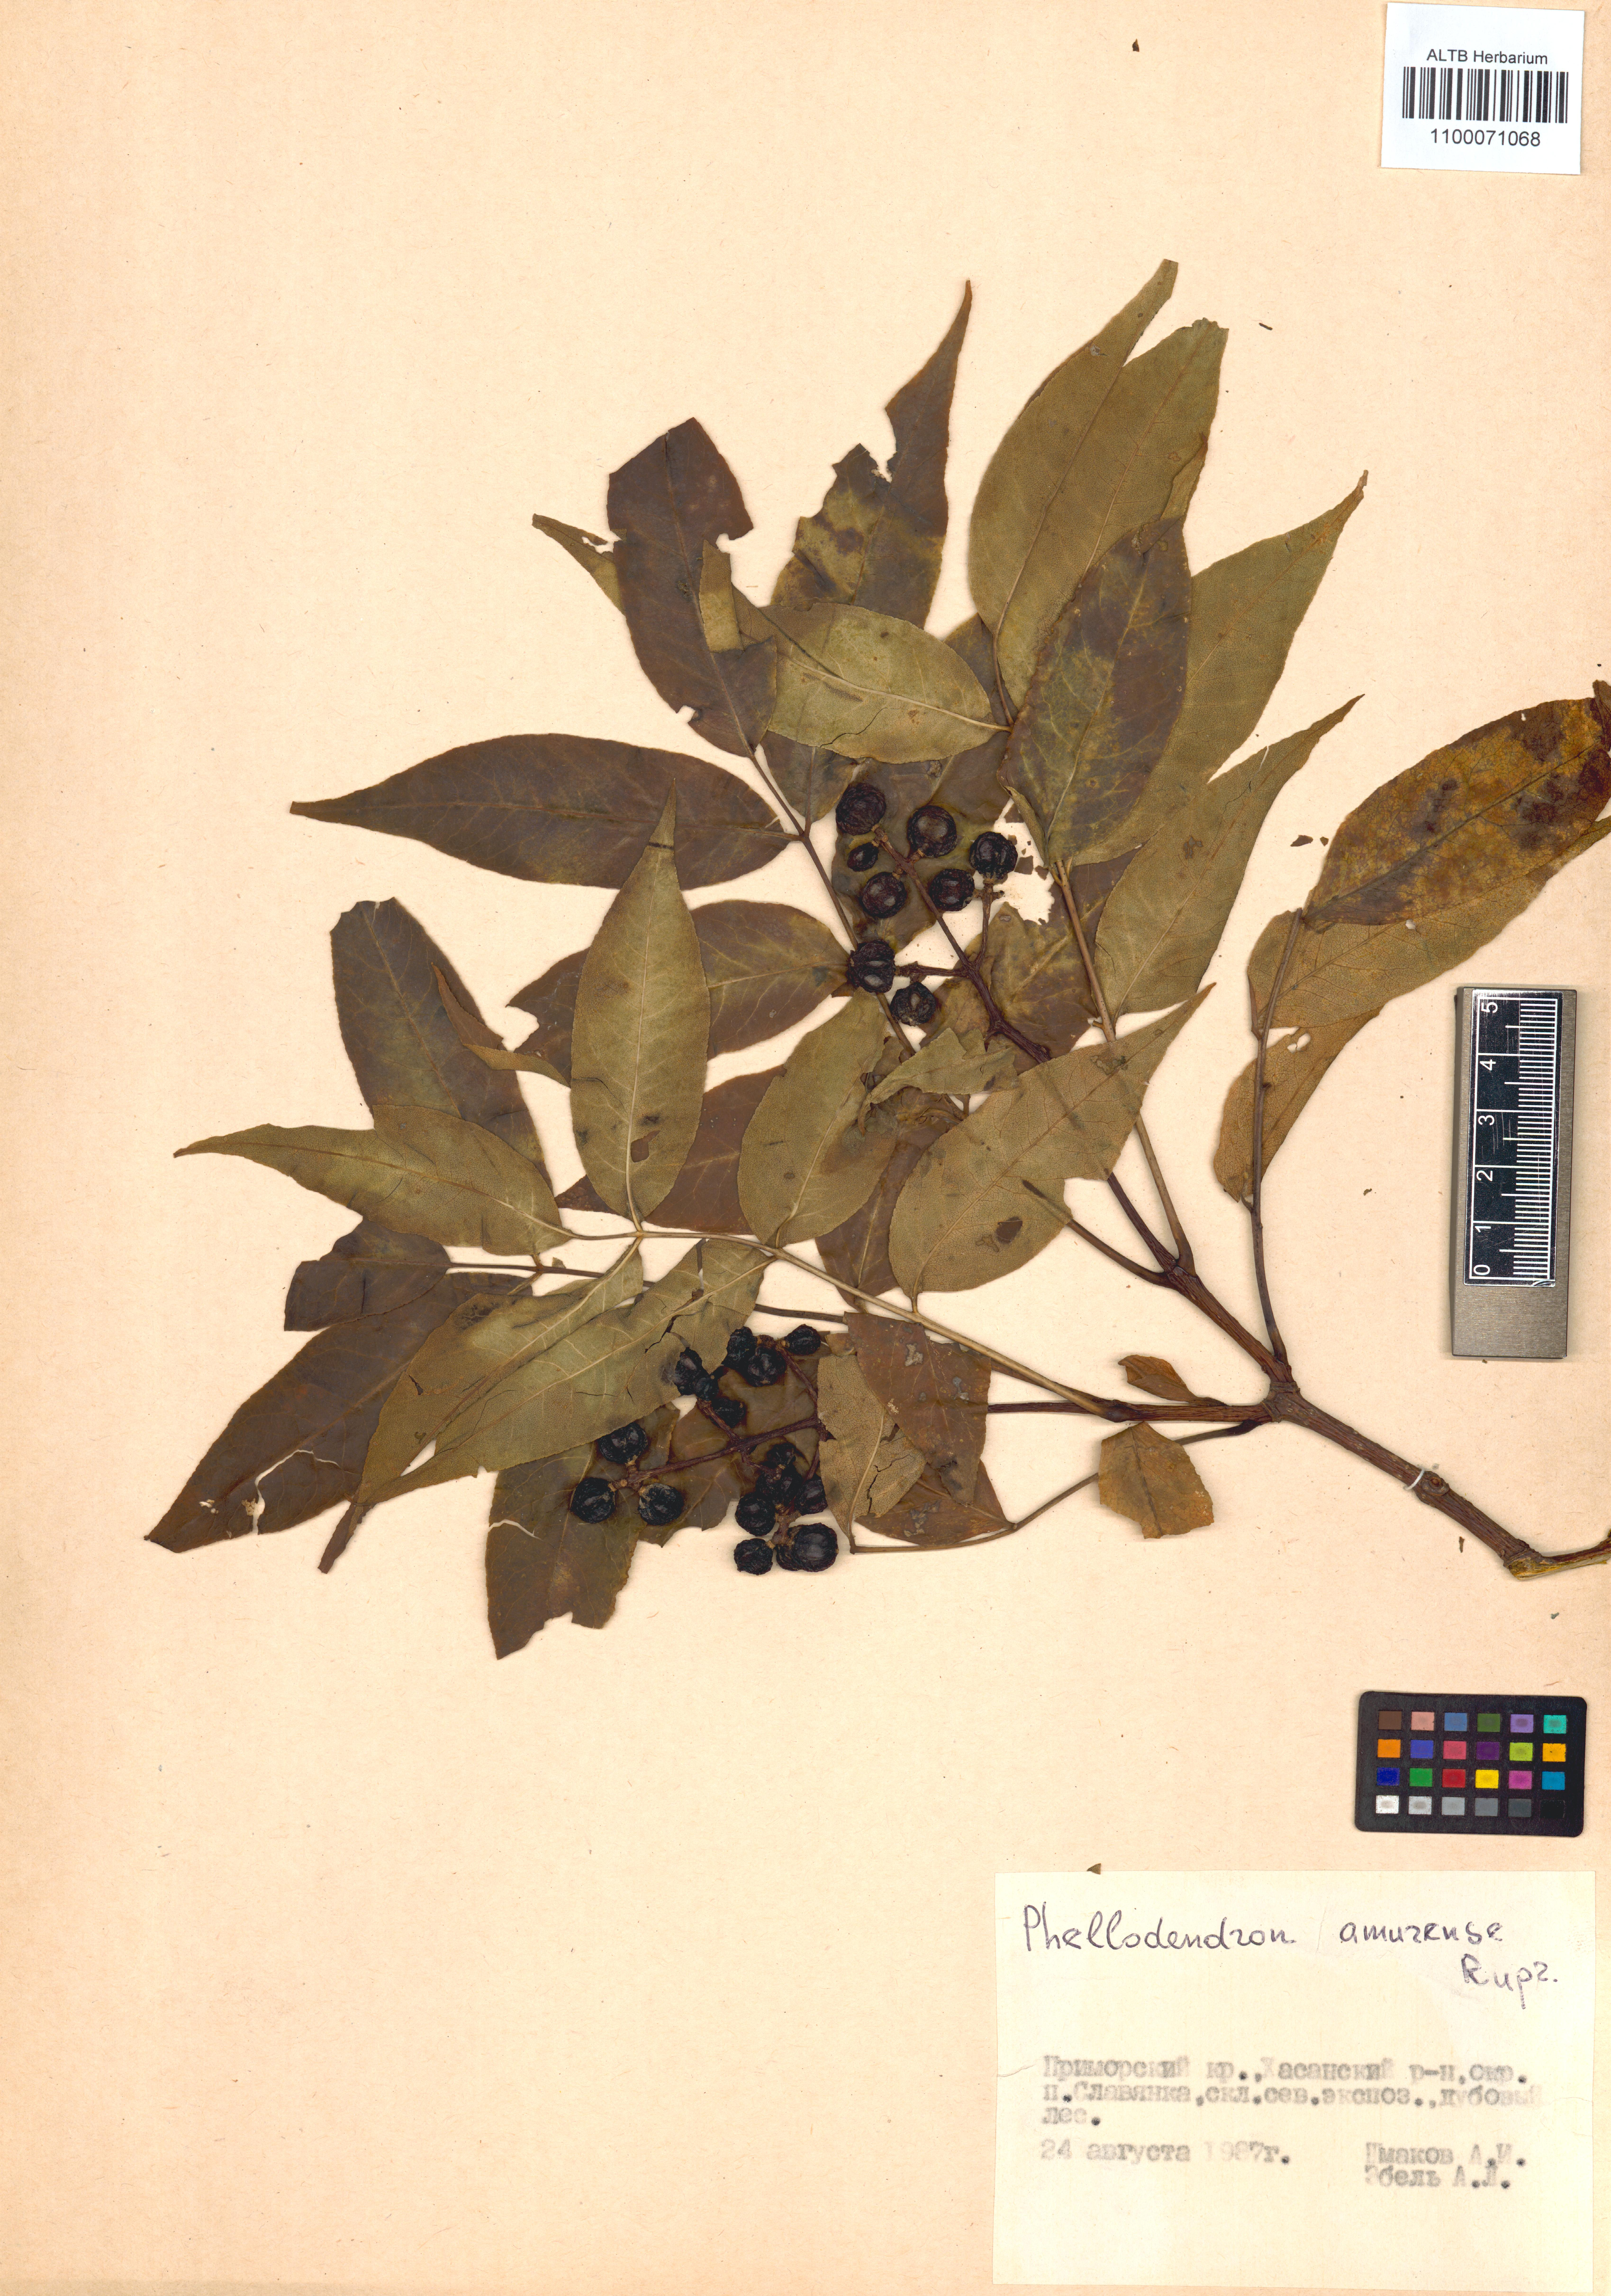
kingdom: Plantae
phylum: Tracheophyta
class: Magnoliopsida
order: Sapindales
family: Rutaceae
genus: Phellodendron
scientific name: Phellodendron amurense
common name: Amur corktree
